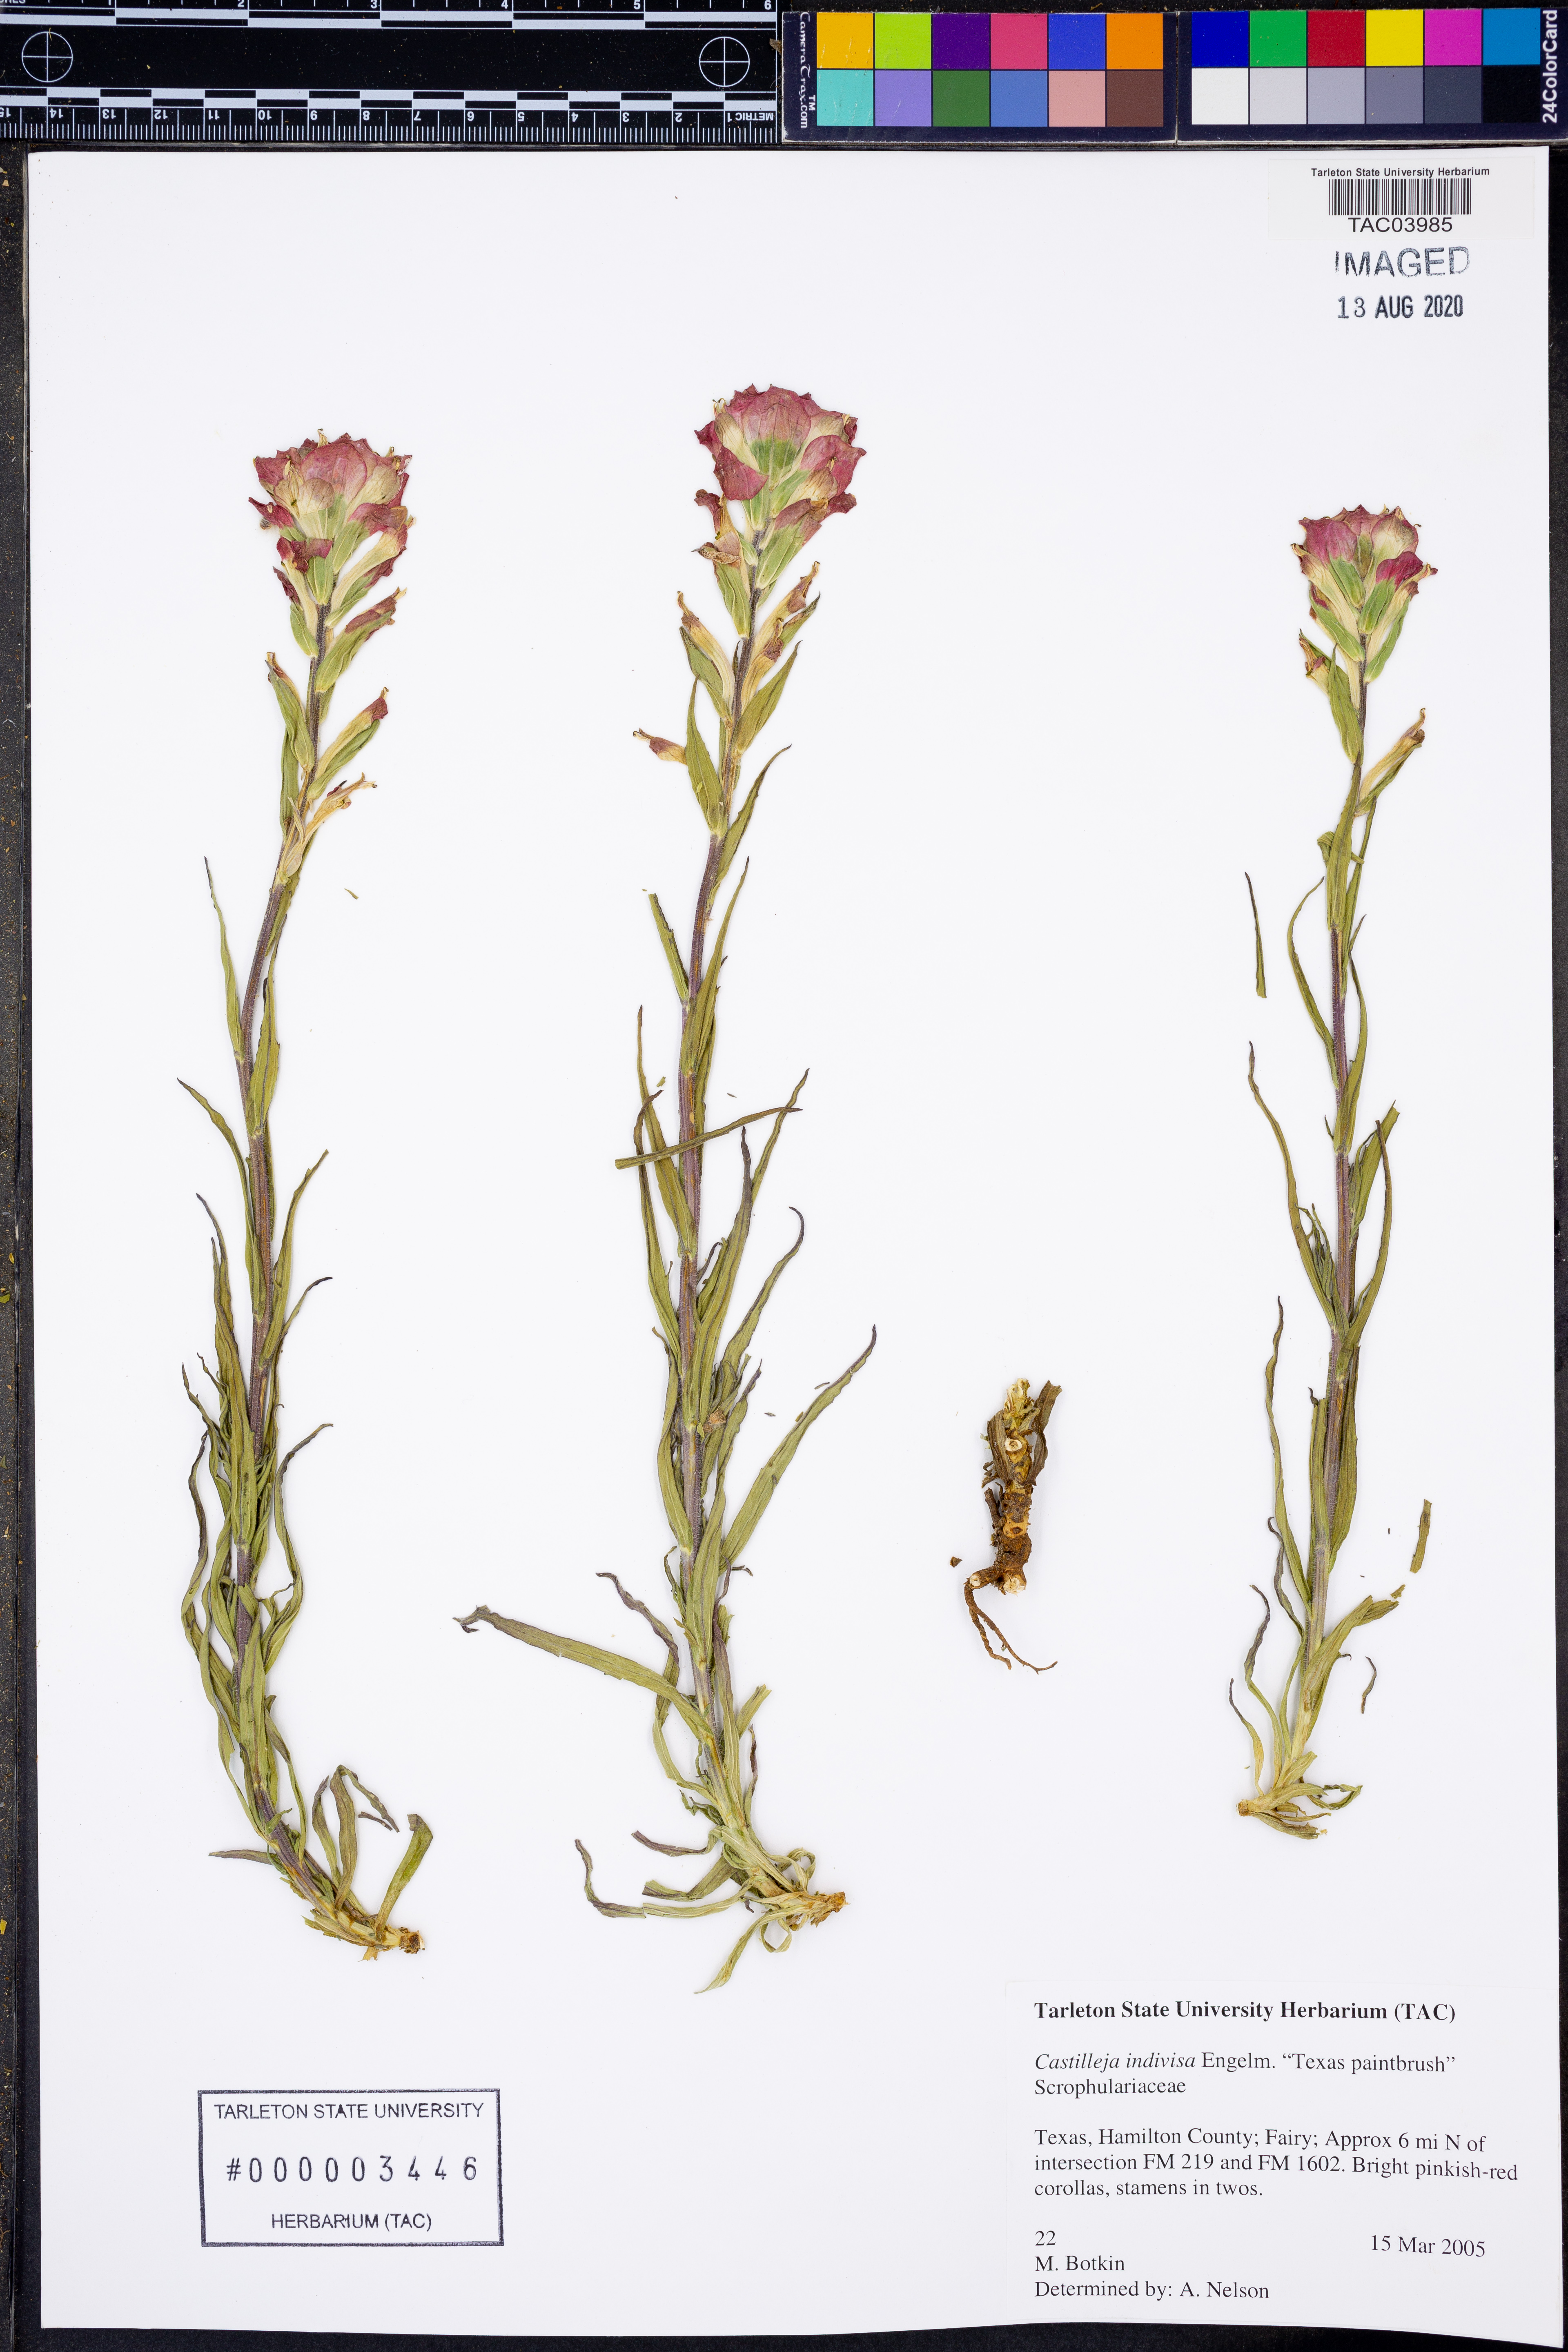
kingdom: Plantae
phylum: Tracheophyta
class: Magnoliopsida
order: Lamiales
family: Orobanchaceae
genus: Castilleja
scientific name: Castilleja indivisa
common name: Texas paintbrush
